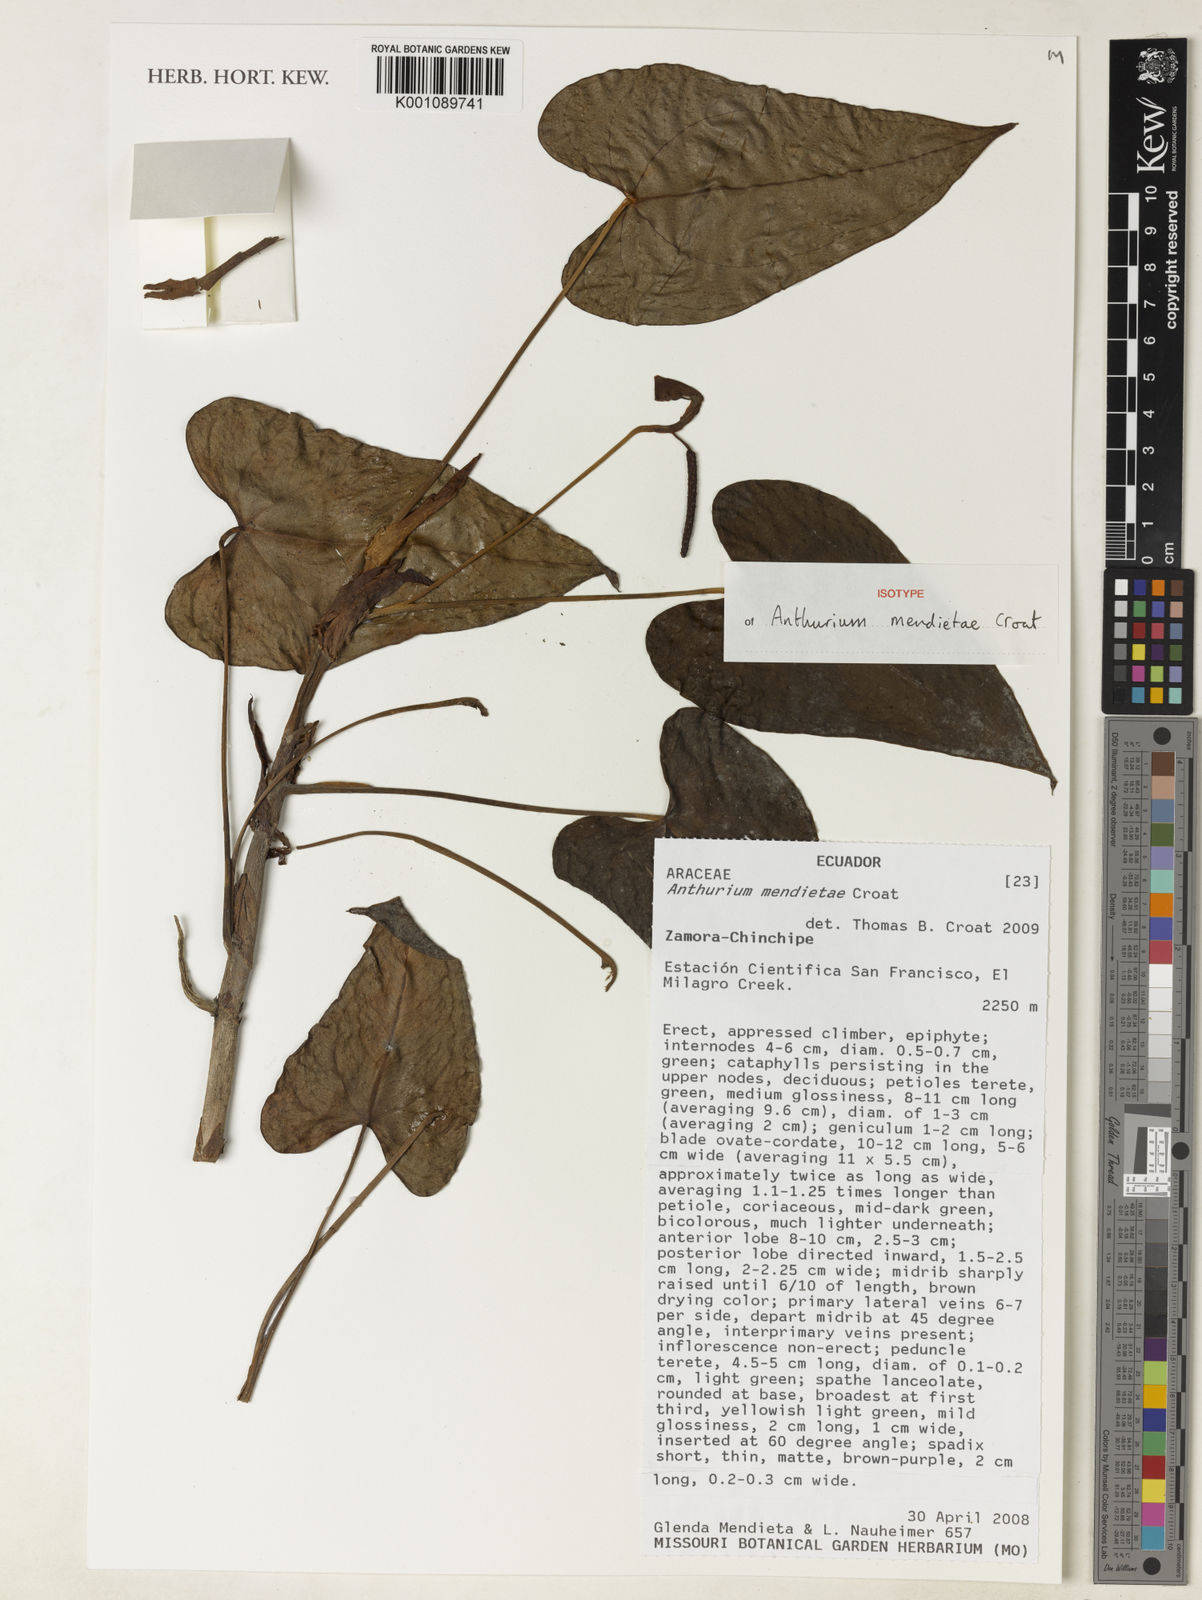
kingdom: Plantae
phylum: Tracheophyta
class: Liliopsida
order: Alismatales
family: Araceae
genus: Anthurium
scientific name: Anthurium mendietae
